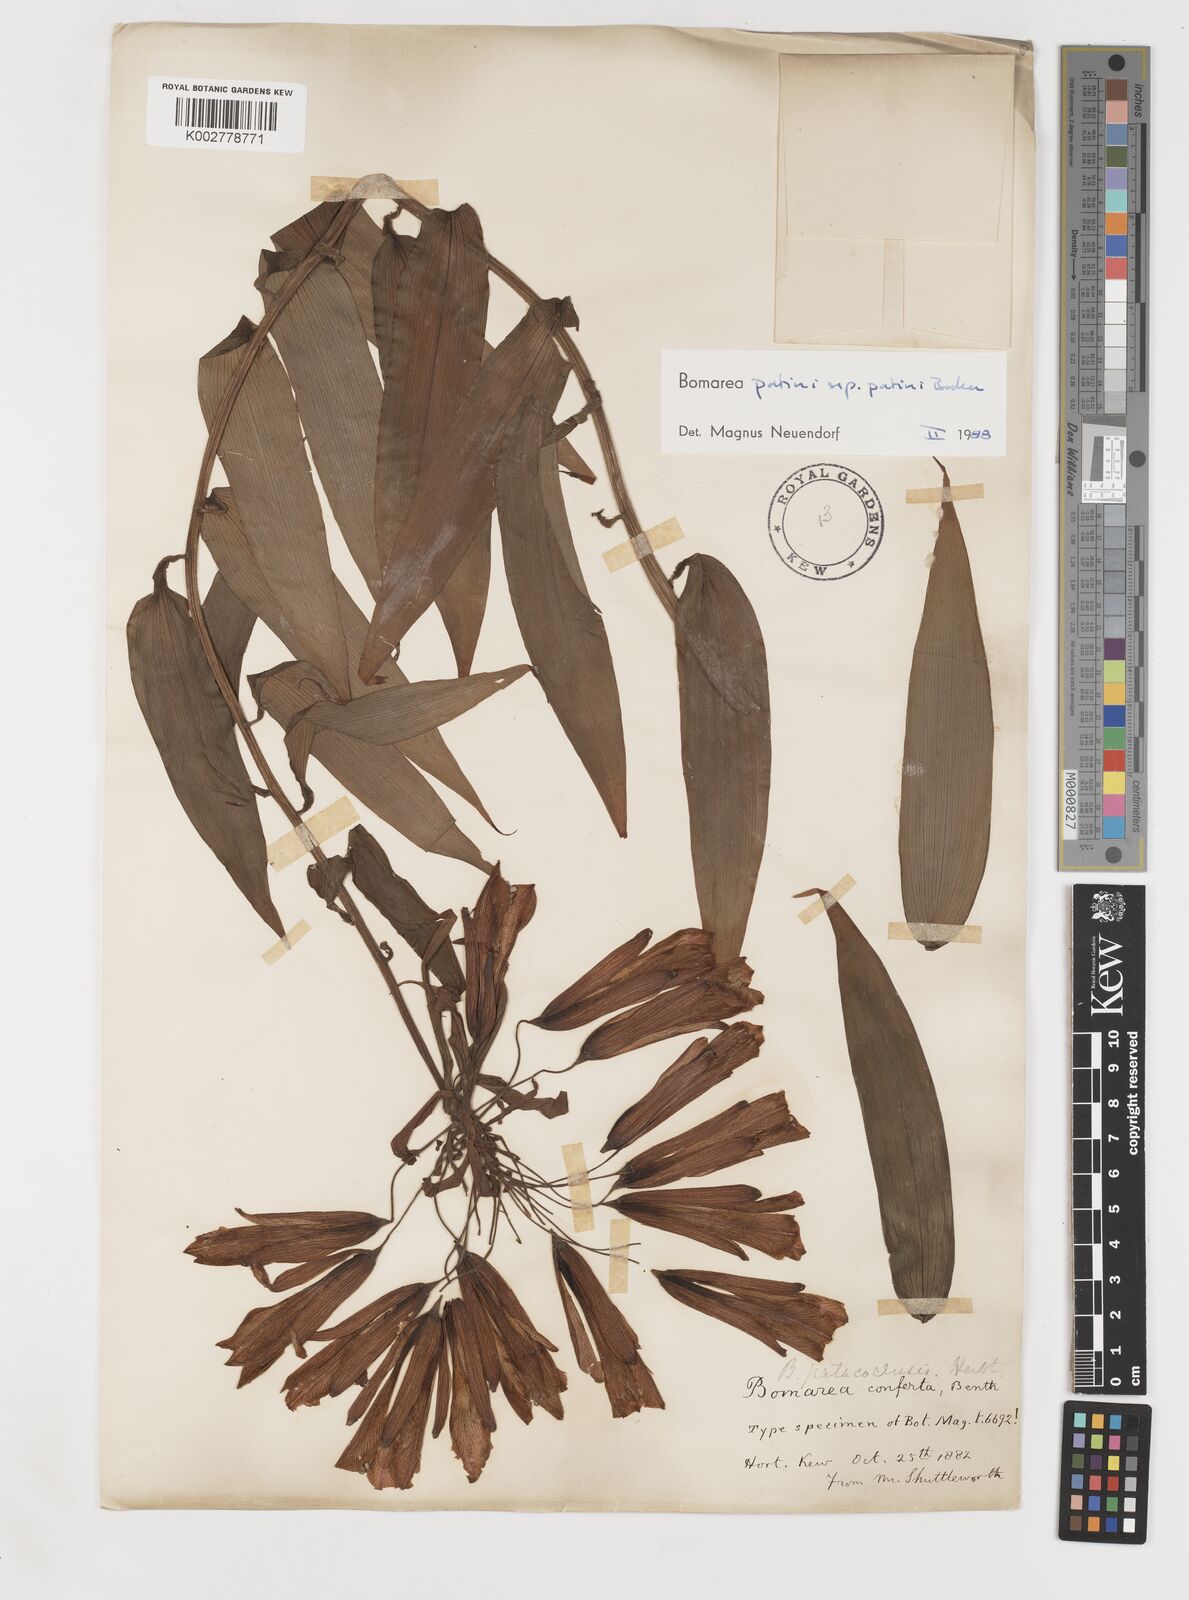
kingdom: Plantae
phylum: Tracheophyta
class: Liliopsida
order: Liliales
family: Alstroemeriaceae
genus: Bomarea
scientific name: Bomarea patinii
